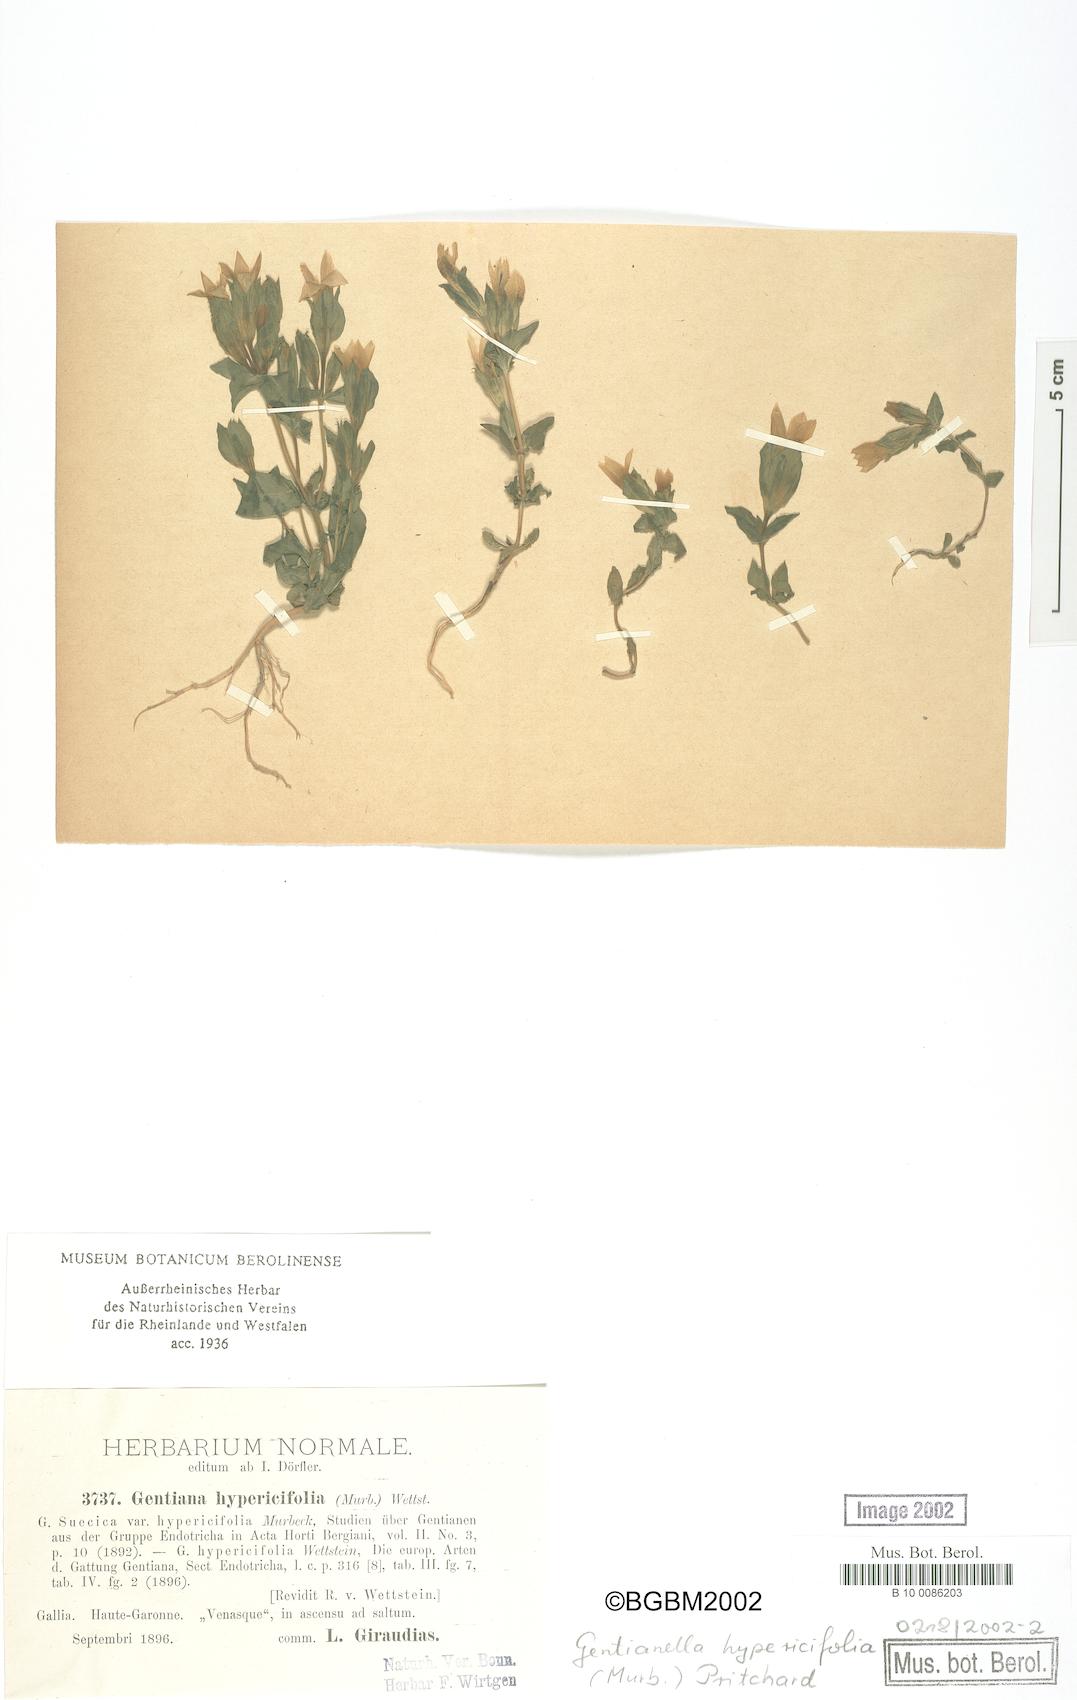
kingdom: Plantae
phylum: Tracheophyta
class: Magnoliopsida
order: Gentianales
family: Gentianaceae
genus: Gentianella
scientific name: Gentianella campestris
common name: Field gentian
